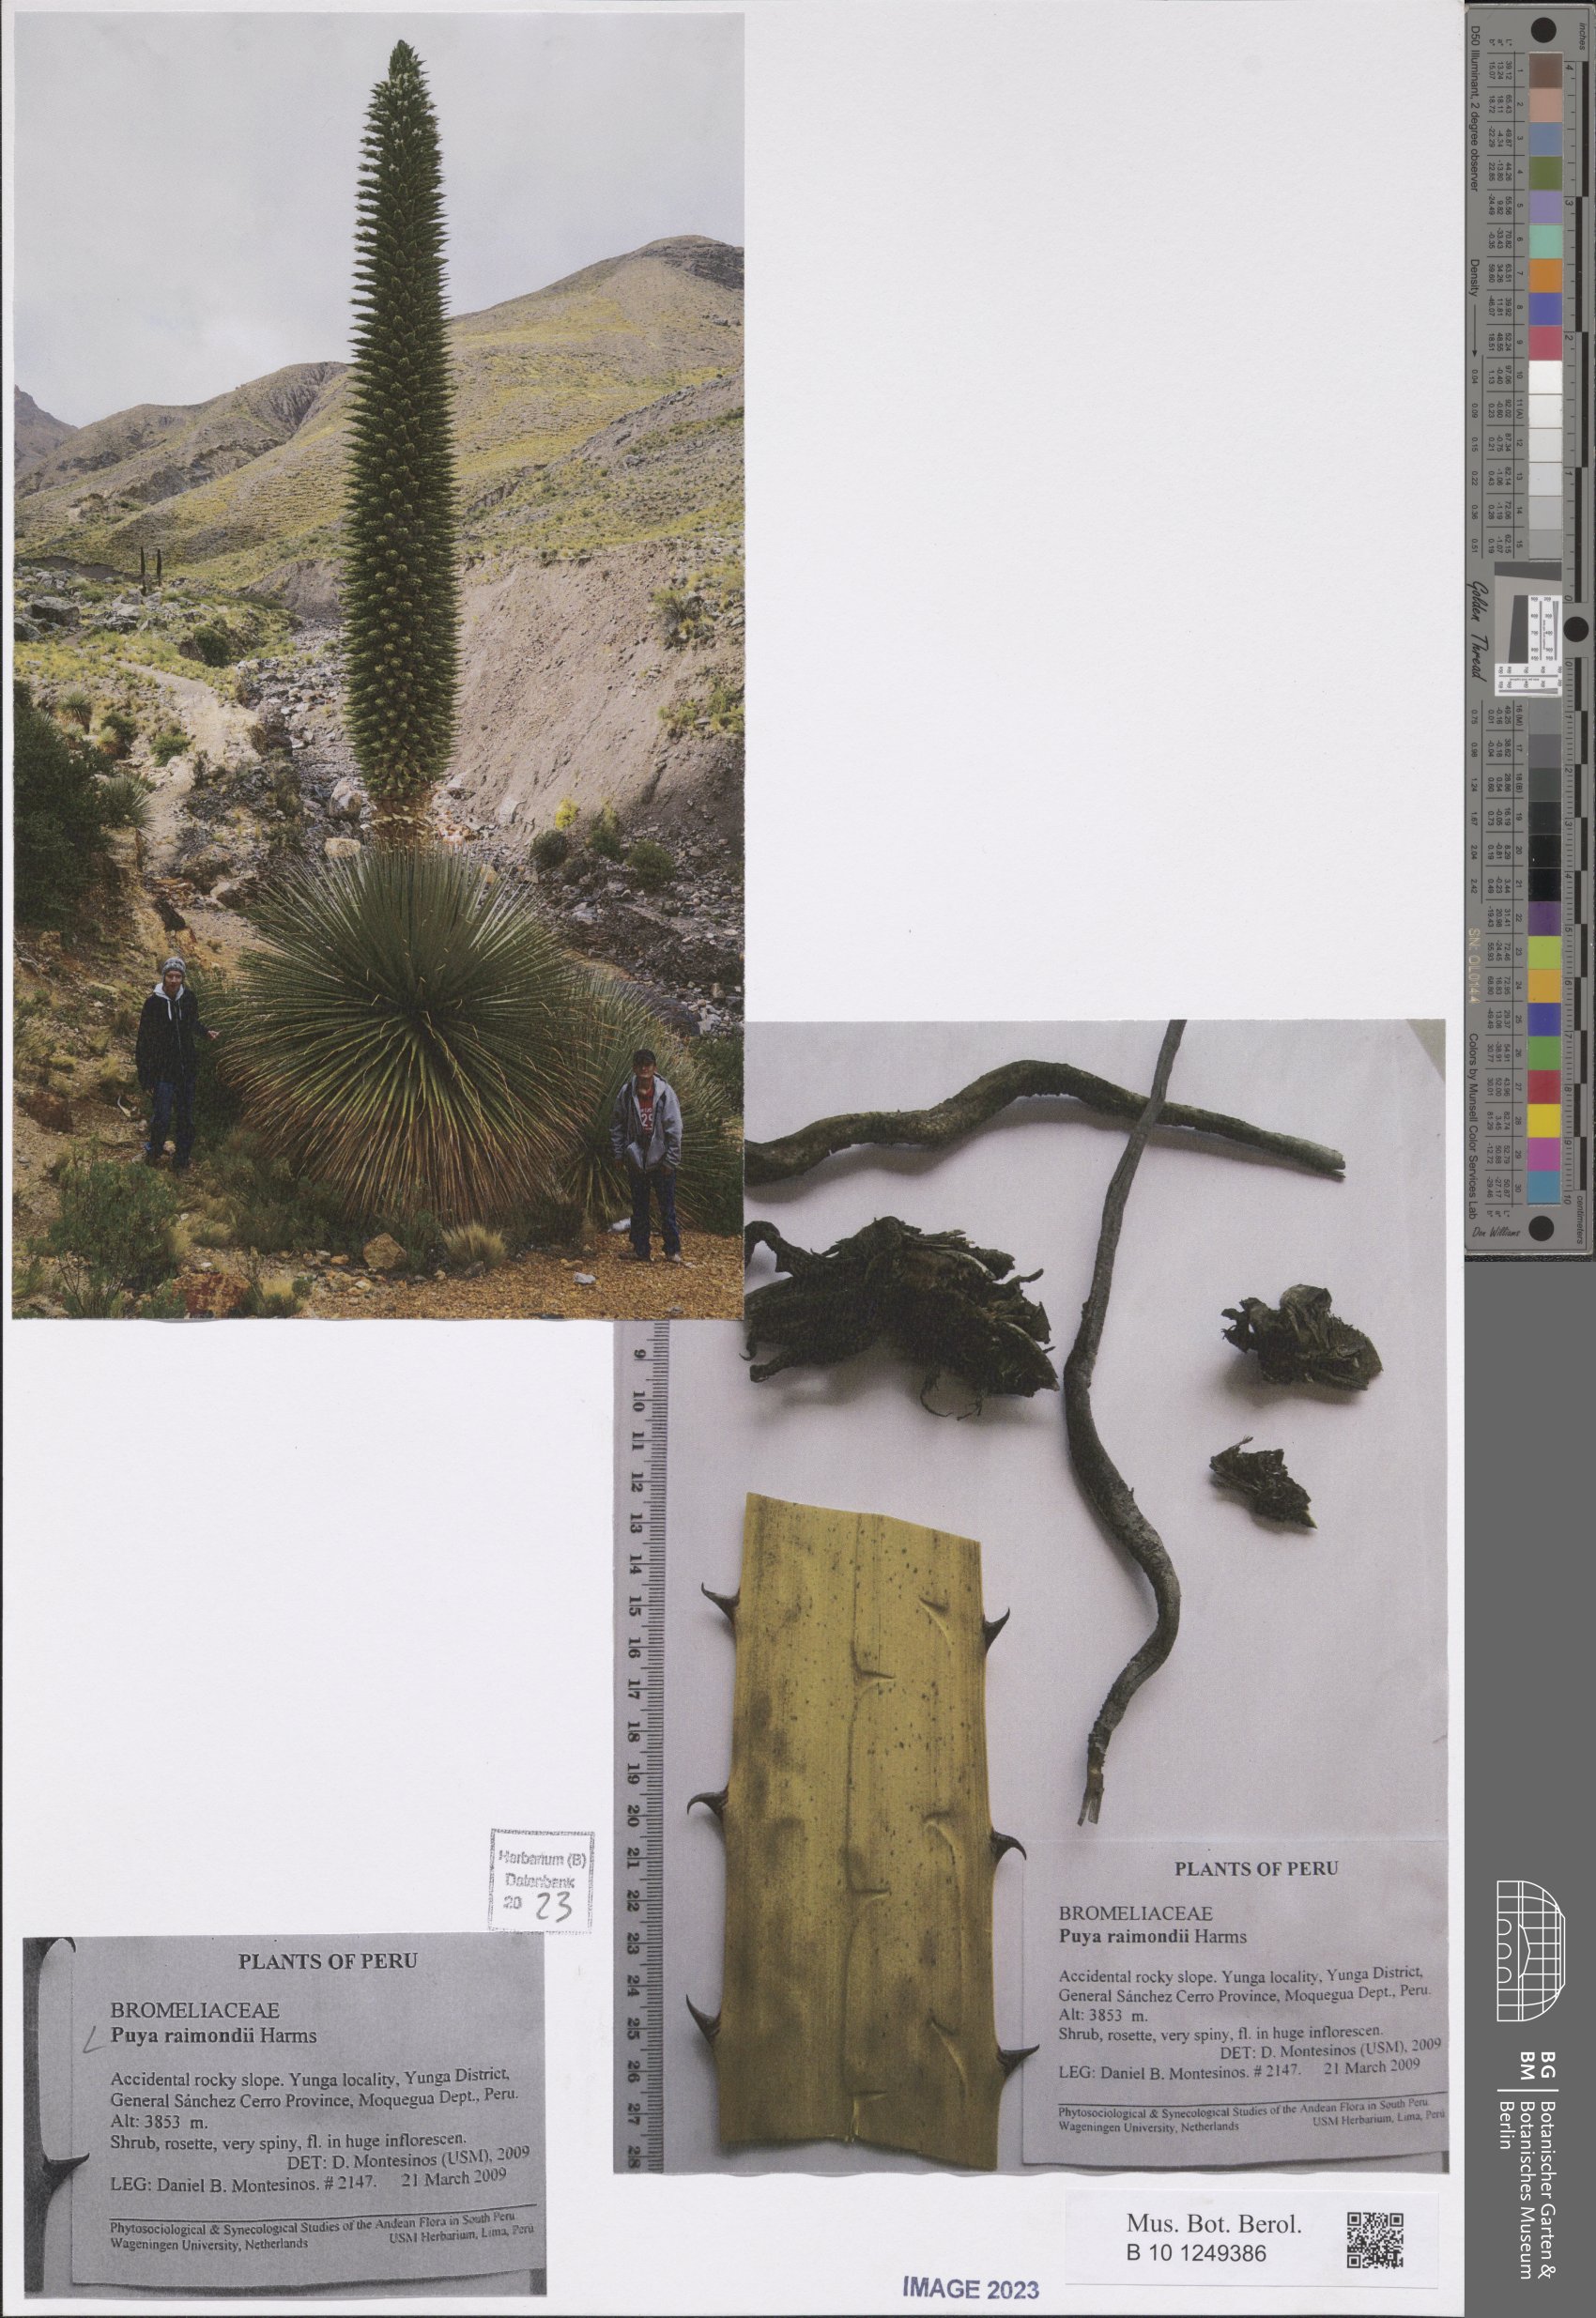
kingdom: Plantae
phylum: Tracheophyta
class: Liliopsida
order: Poales
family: Bromeliaceae
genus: Puya
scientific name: Puya raimondii
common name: Queen of the andes
